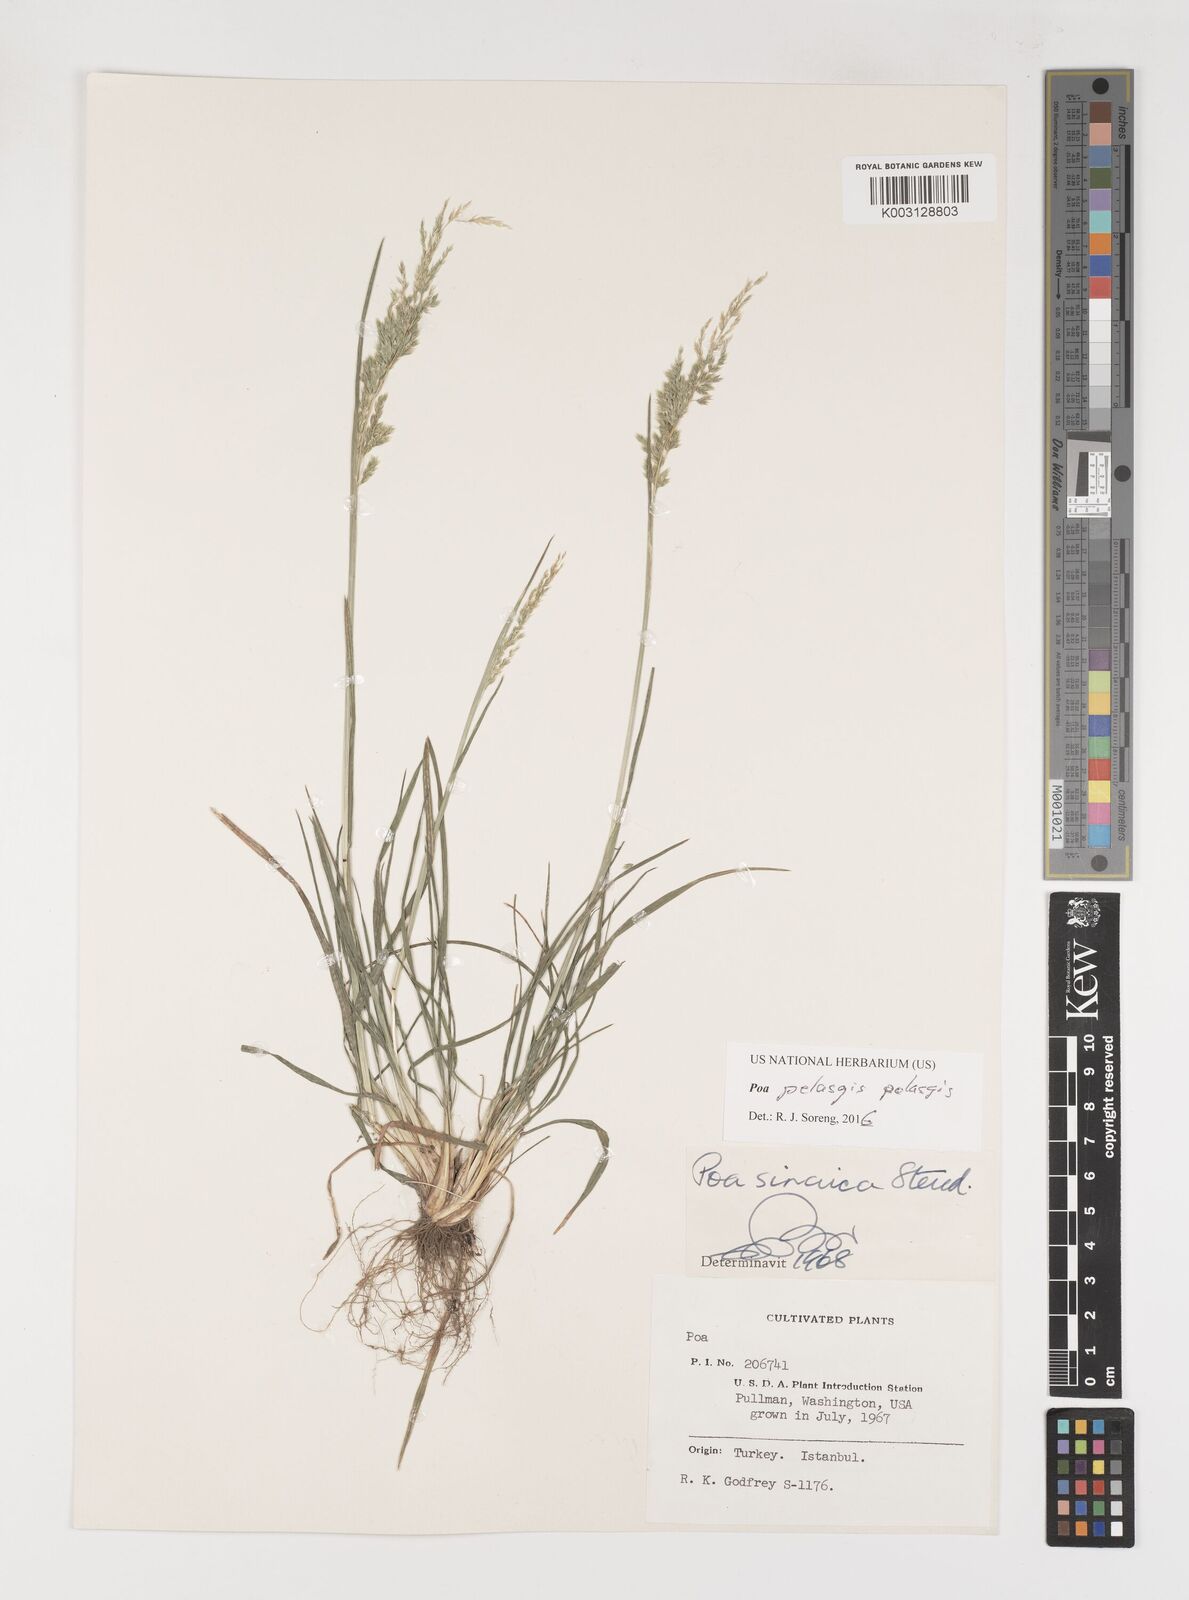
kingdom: Plantae
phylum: Tracheophyta
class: Liliopsida
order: Poales
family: Poaceae
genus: Poa
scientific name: Poa iconia
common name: Konya bluegrass
